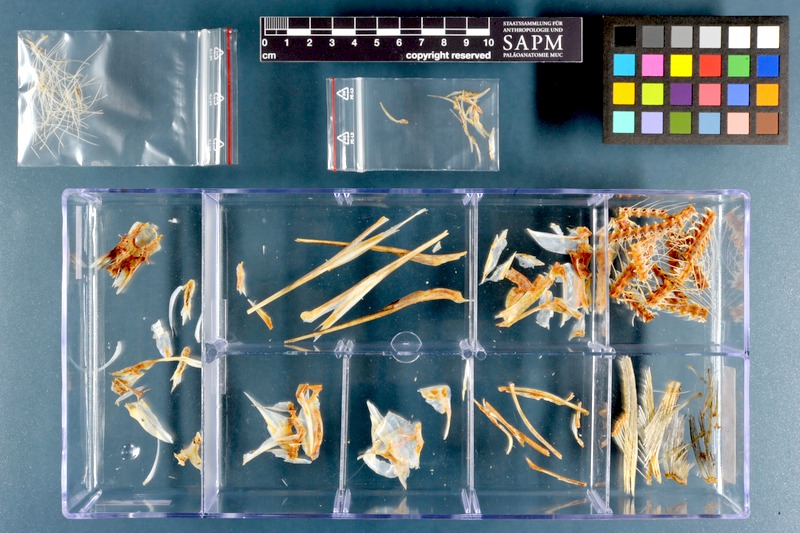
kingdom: Animalia
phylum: Chordata
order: Beloniformes
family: Belonidae
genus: Ablennes
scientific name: Ablennes hians
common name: Flat needlefish
